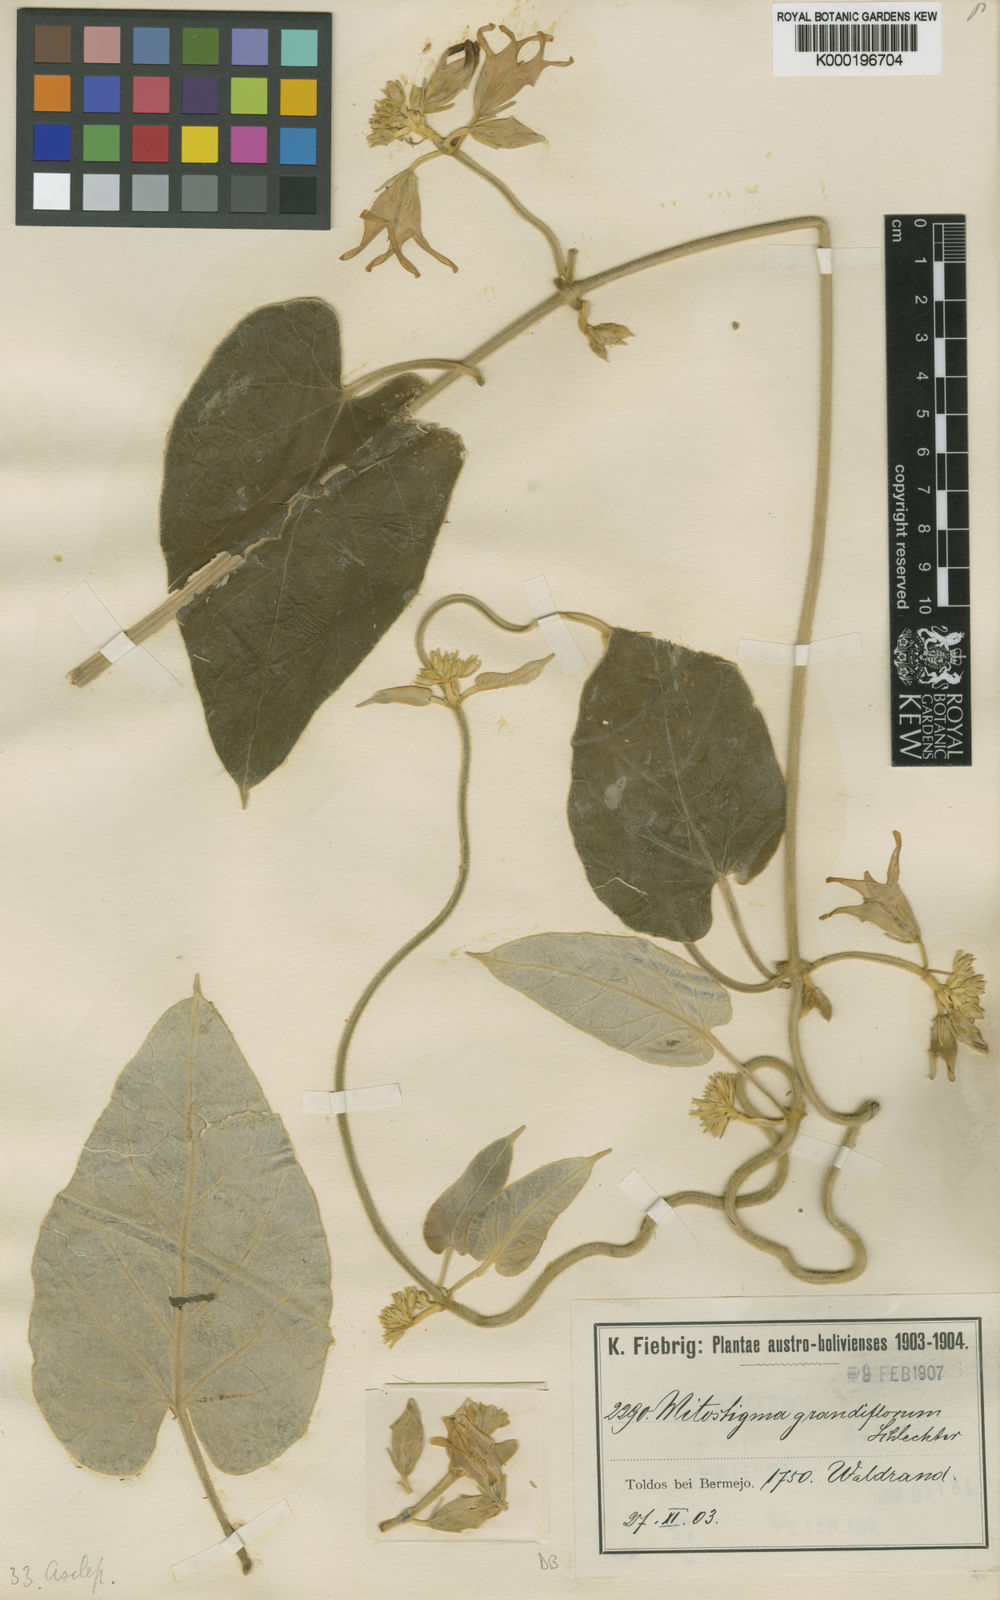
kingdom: Plantae
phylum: Tracheophyta
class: Magnoliopsida
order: Gentianales
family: Apocynaceae
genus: Philibertia
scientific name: Philibertia longistyla
